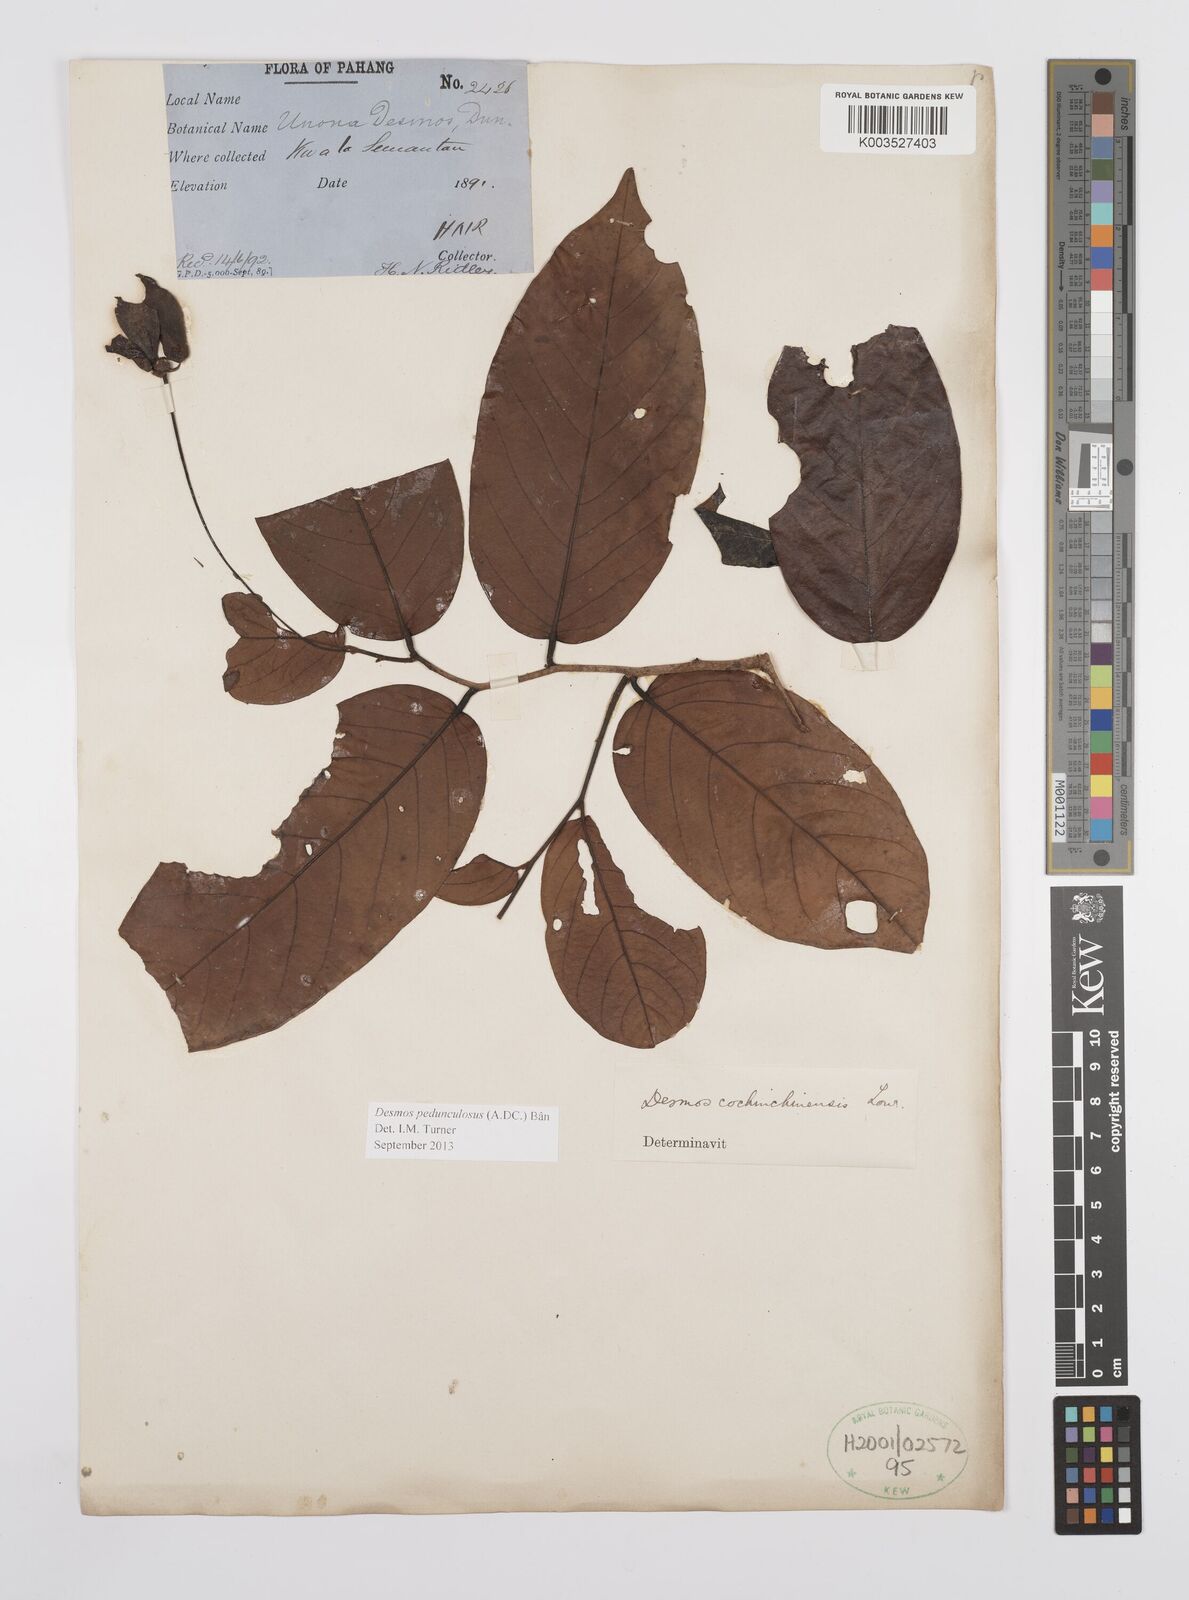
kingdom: Plantae
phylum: Tracheophyta
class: Magnoliopsida
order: Magnoliales
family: Annonaceae
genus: Desmos
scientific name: Desmos cochinchinensis
